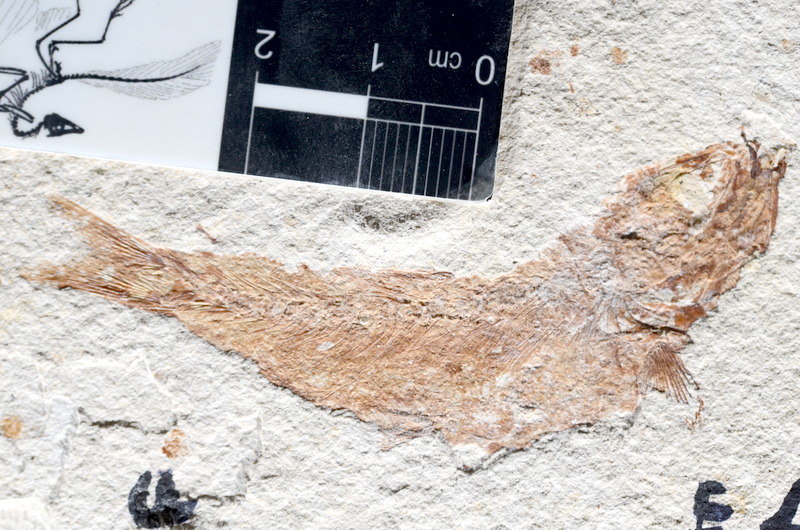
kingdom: Animalia
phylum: Chordata
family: Ascalaboidae
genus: Tharsis
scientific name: Tharsis dubius
